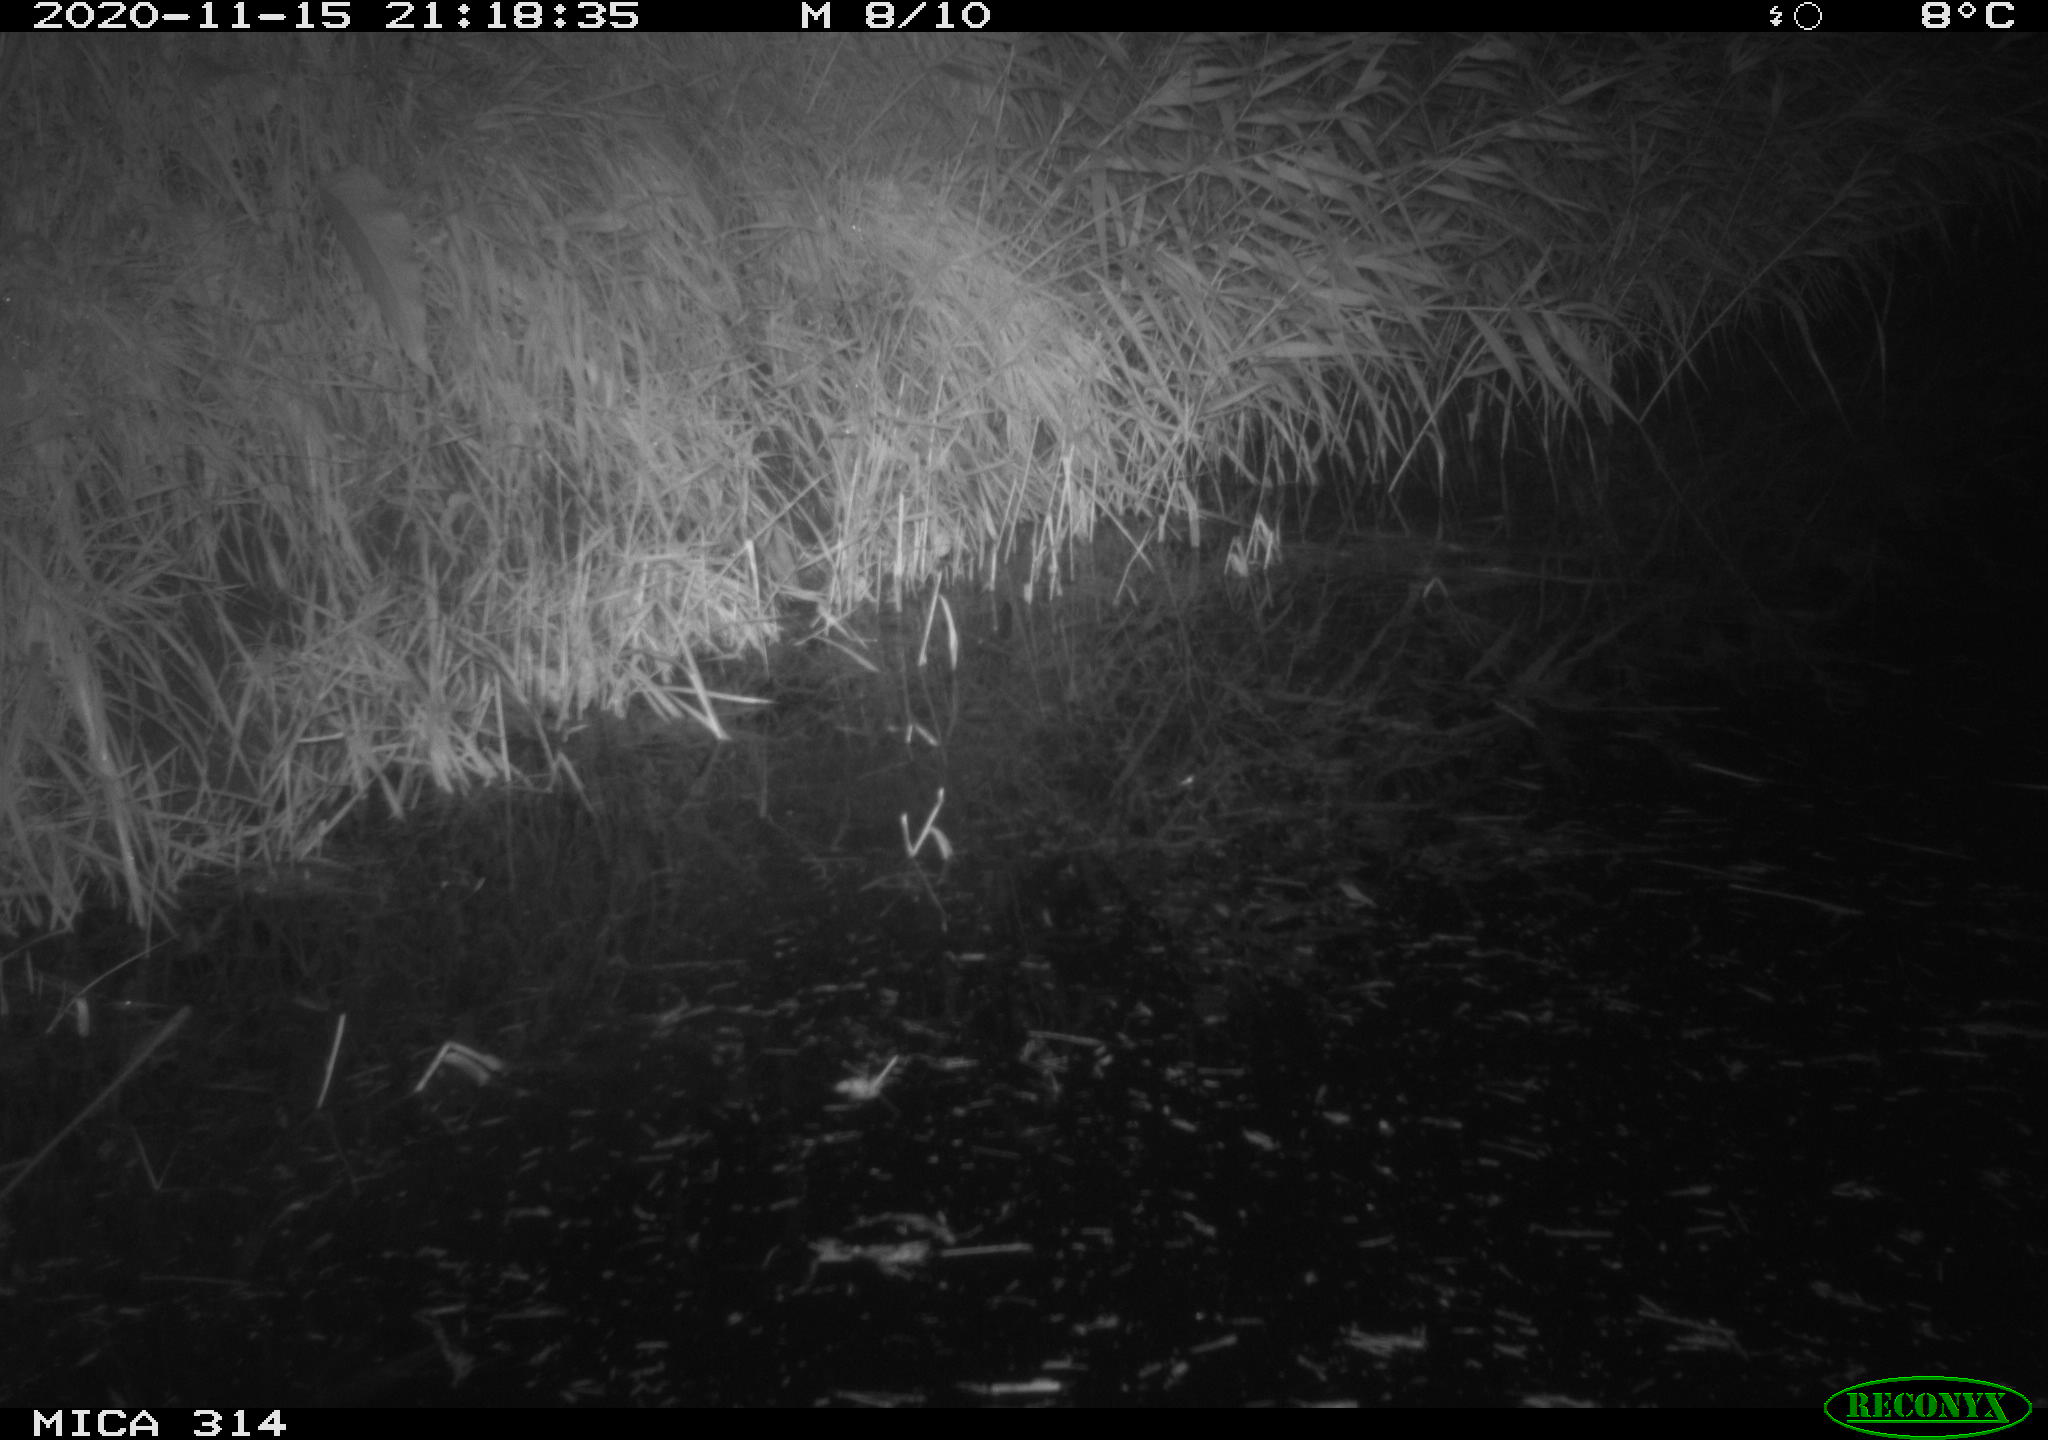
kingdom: Animalia
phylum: Chordata
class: Mammalia
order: Rodentia
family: Muridae
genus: Rattus
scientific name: Rattus norvegicus
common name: Brown rat
